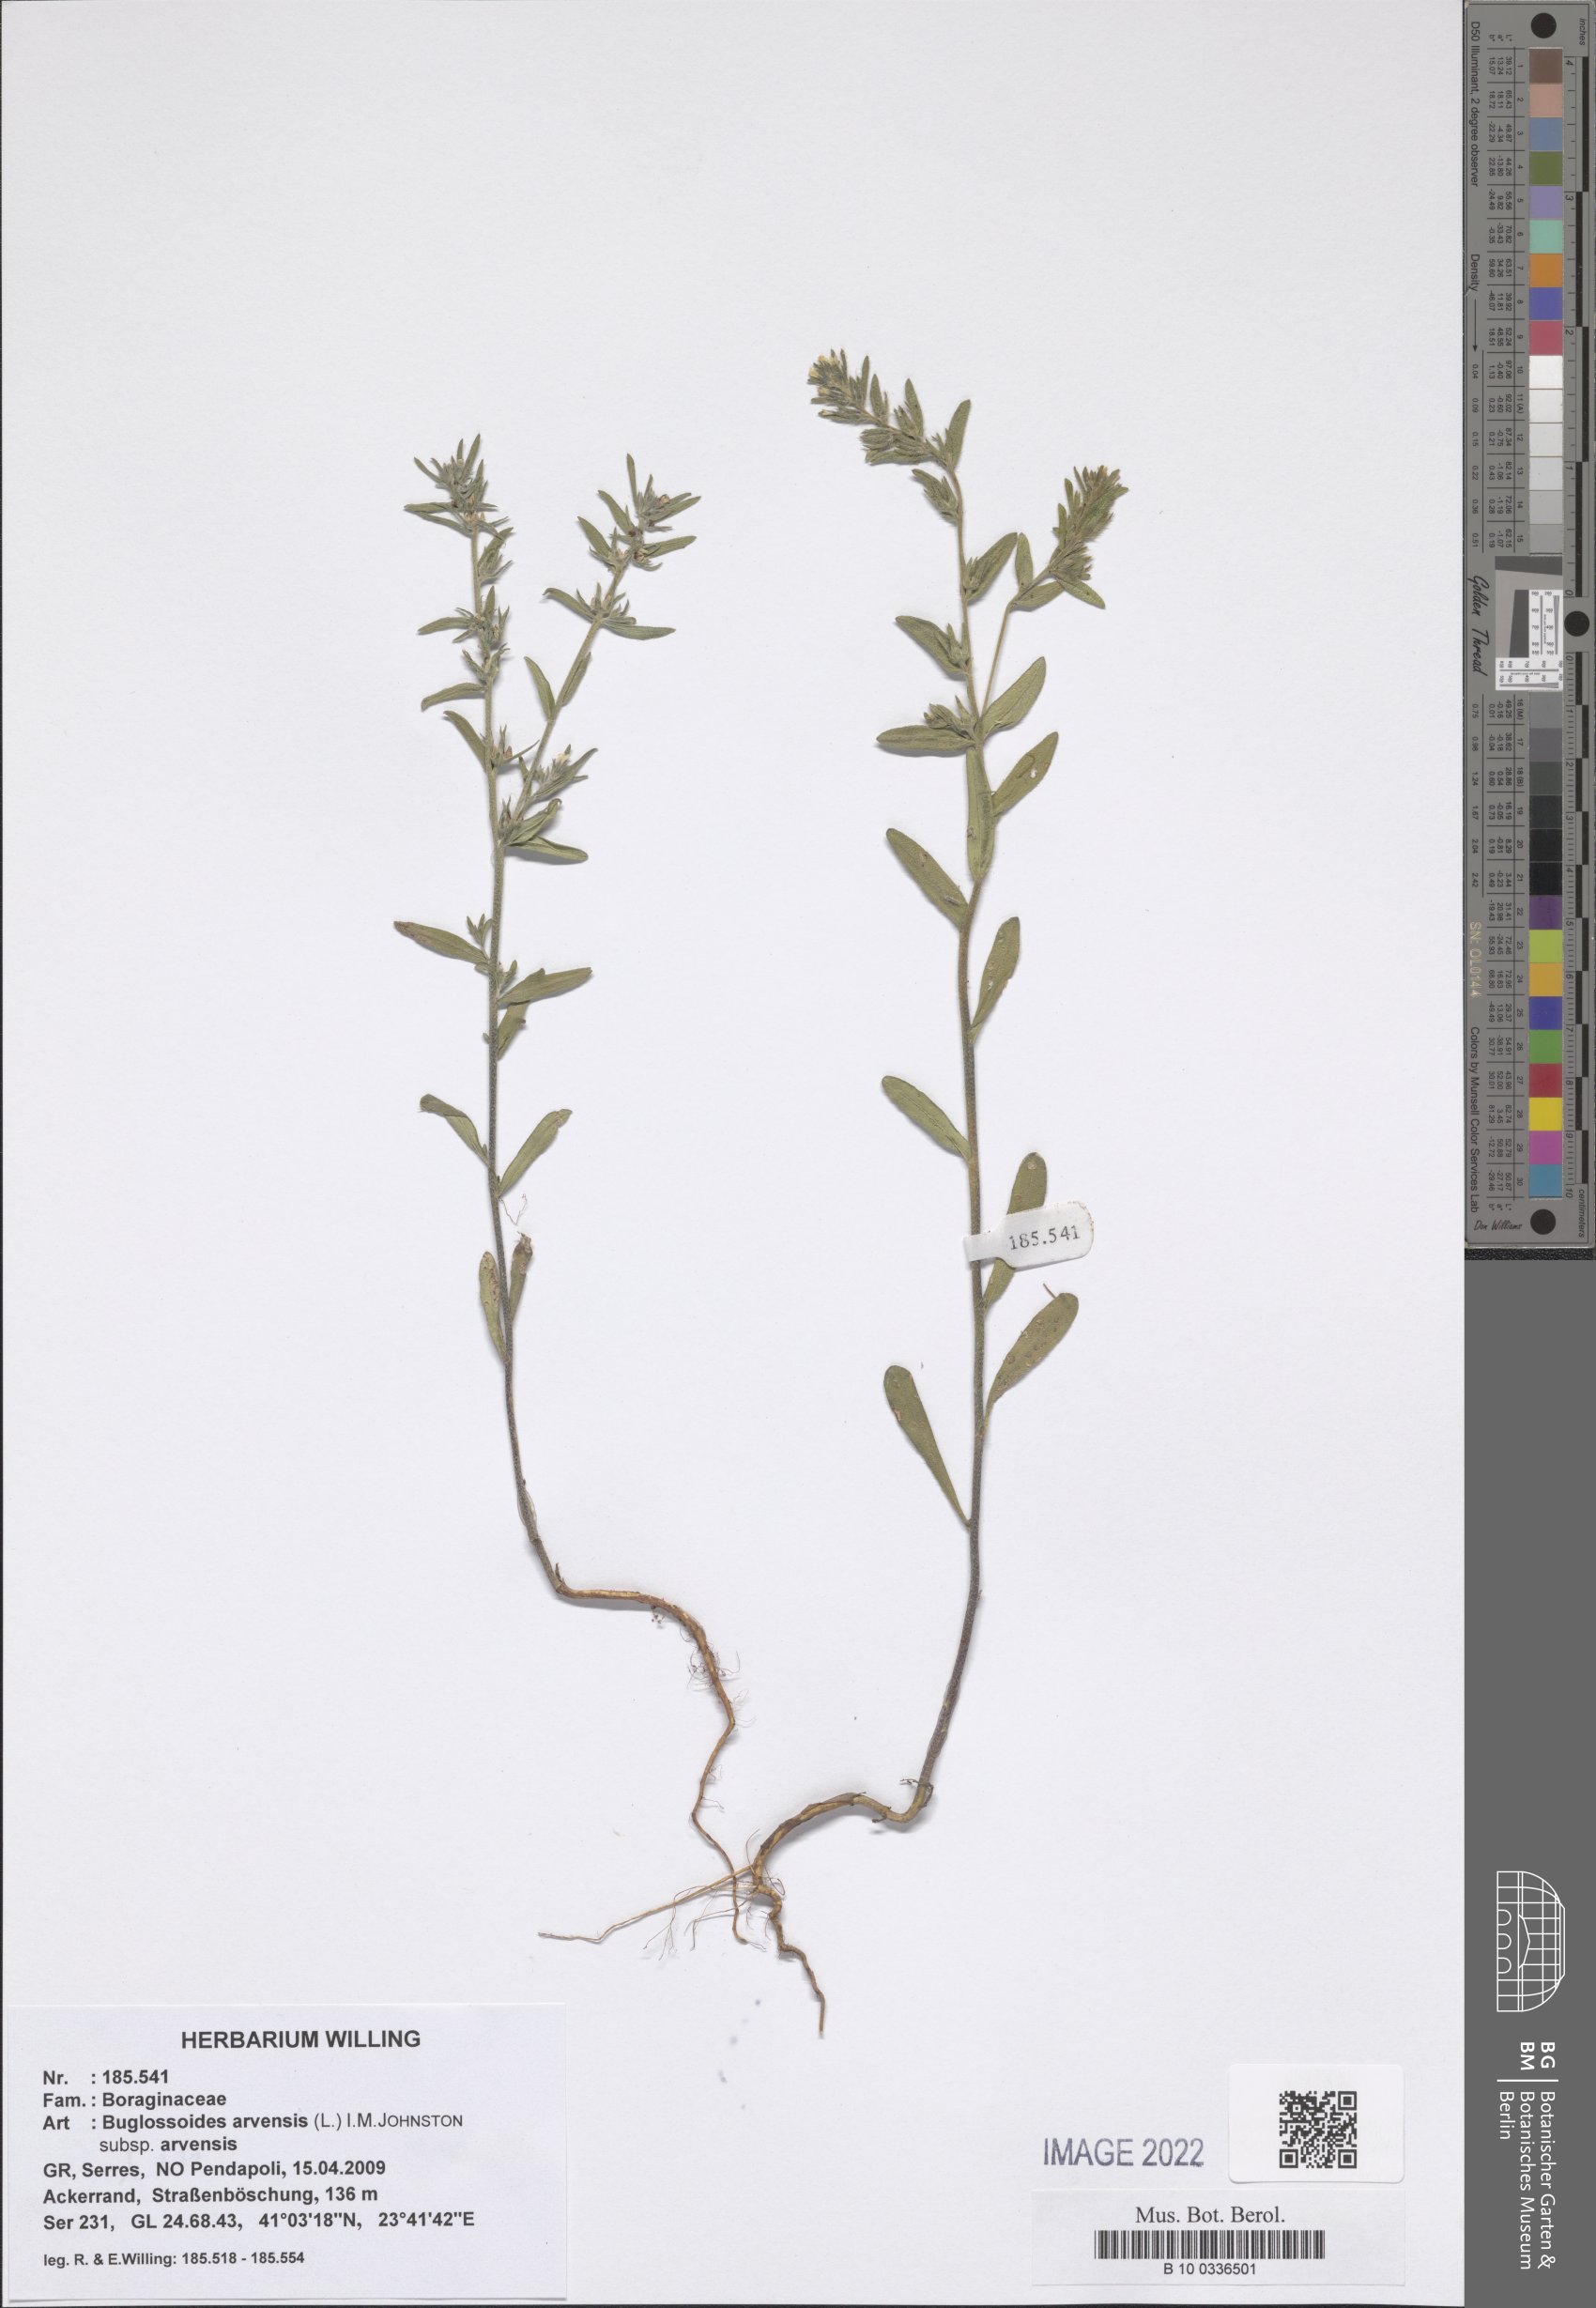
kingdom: Plantae
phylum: Tracheophyta
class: Magnoliopsida
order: Boraginales
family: Boraginaceae
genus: Buglossoides
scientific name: Buglossoides arvensis
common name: Corn gromwell
